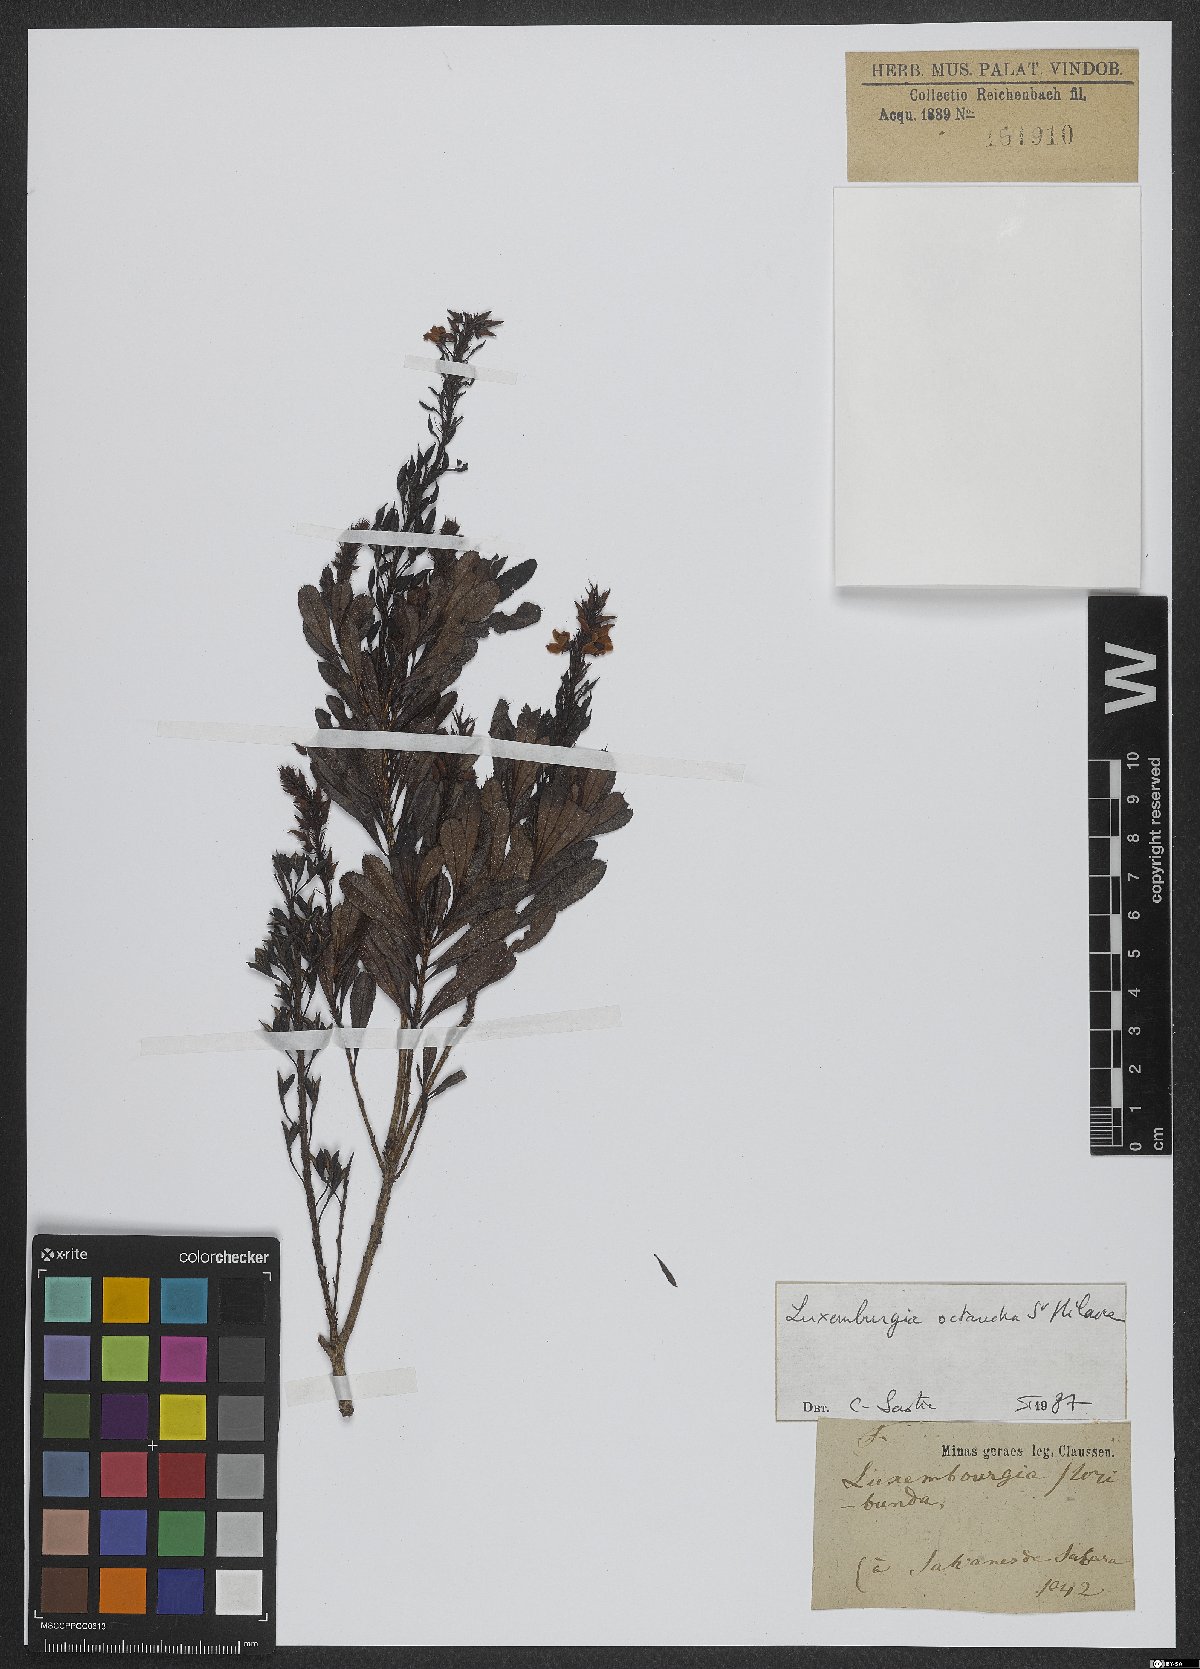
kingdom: Plantae
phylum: Tracheophyta
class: Magnoliopsida
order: Malpighiales
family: Ochnaceae
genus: Luxemburgia
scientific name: Luxemburgia octandra
